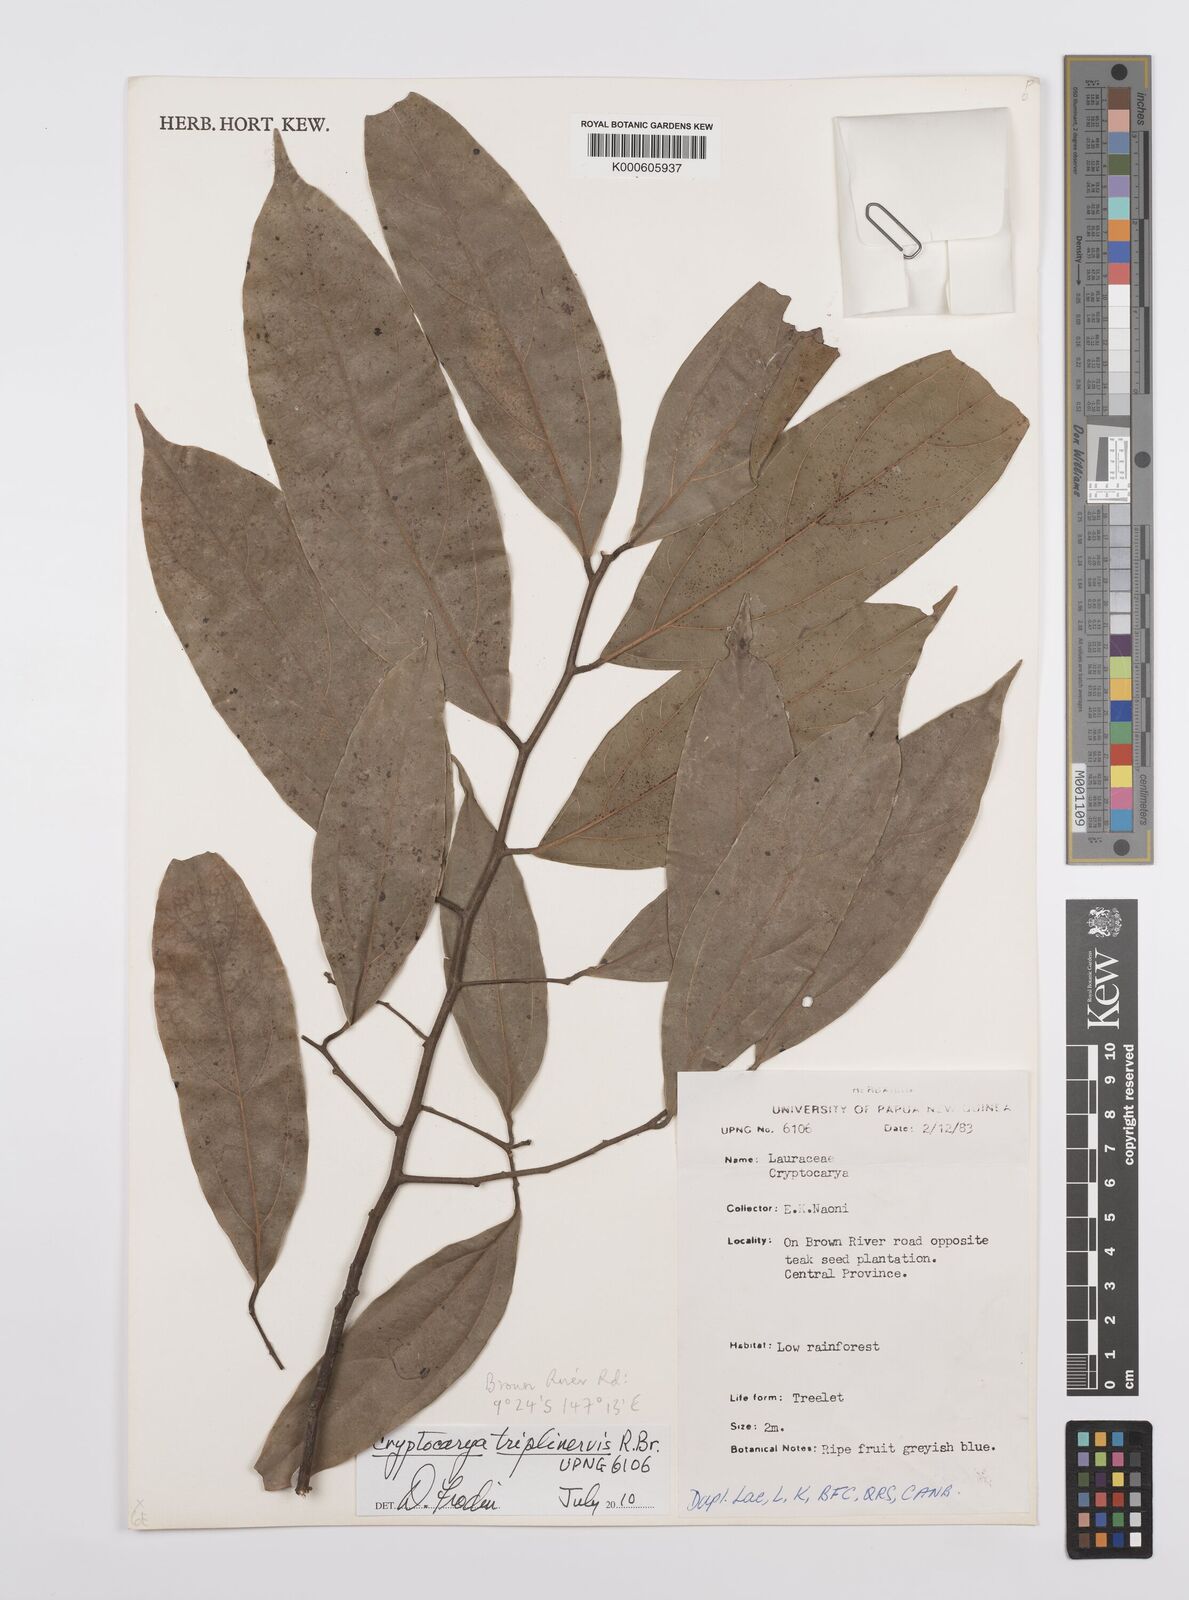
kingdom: Plantae
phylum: Tracheophyta
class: Magnoliopsida
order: Laurales
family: Lauraceae
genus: Cryptocarya
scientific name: Cryptocarya triplinervis
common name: Three-vein cryptocarya
